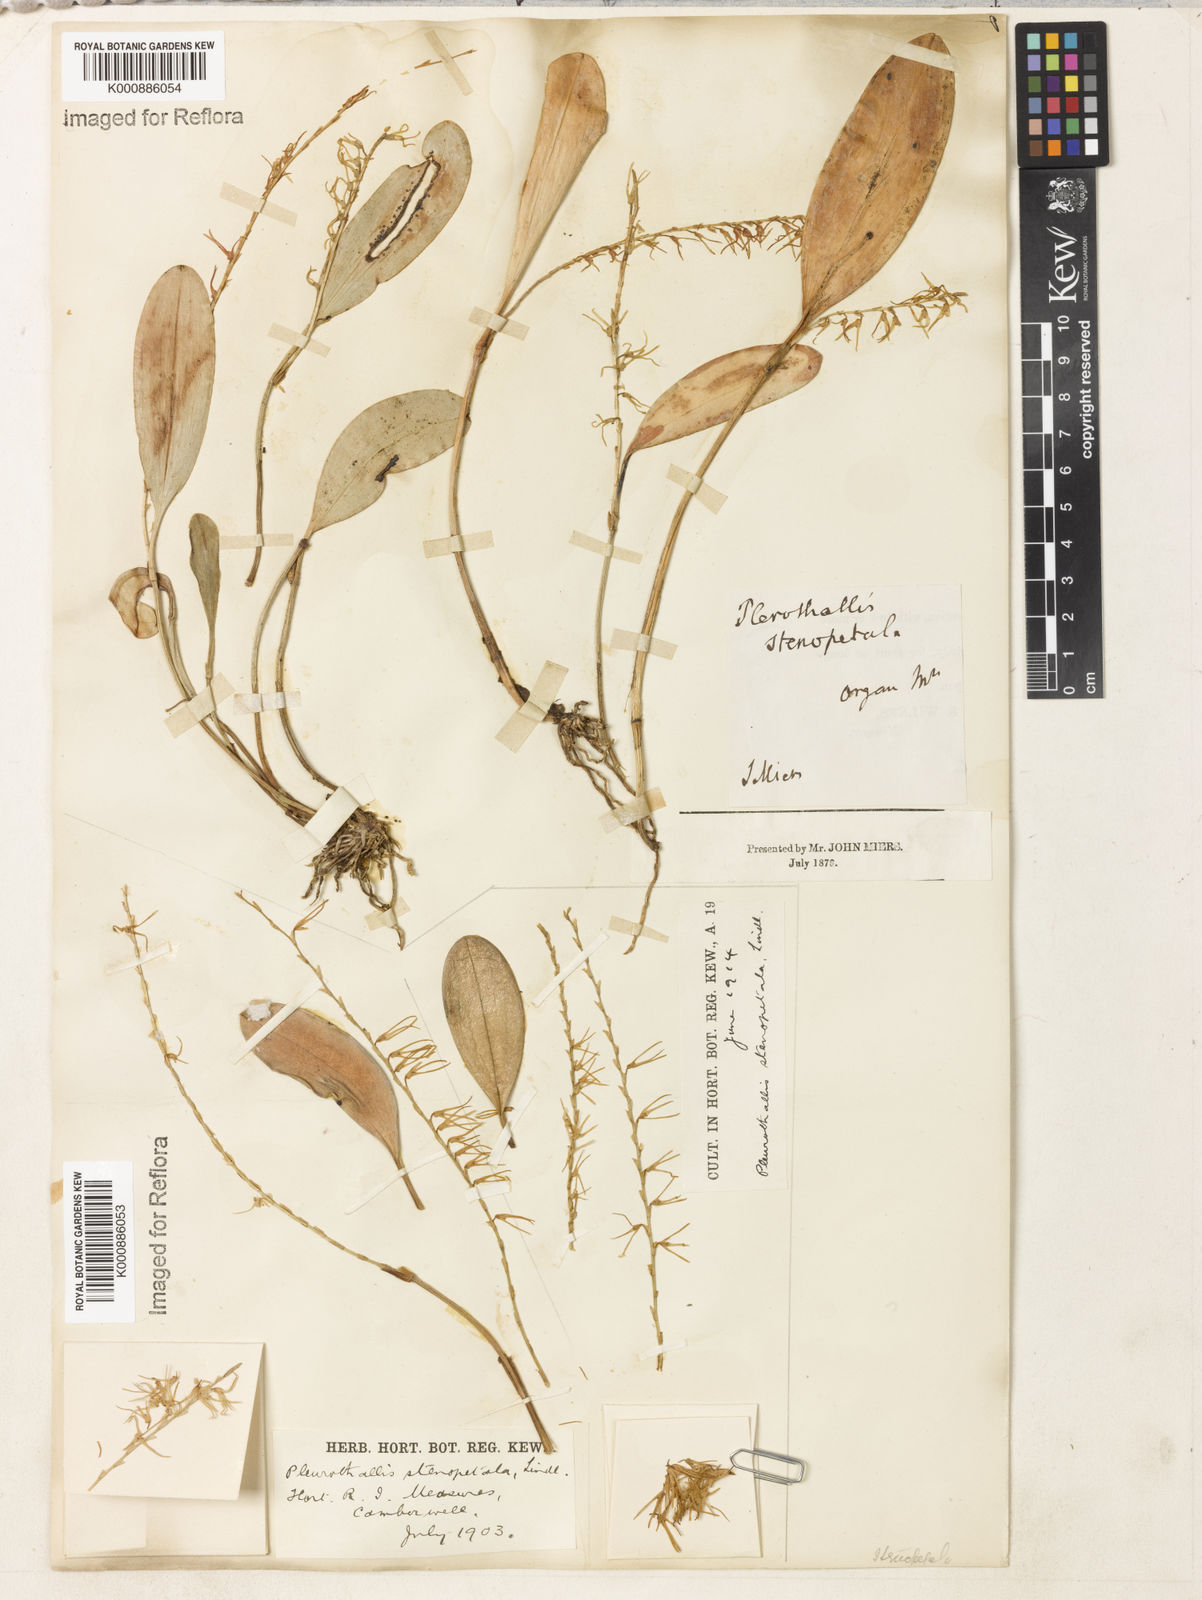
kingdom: Plantae
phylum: Tracheophyta
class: Liliopsida
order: Asparagales
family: Orchidaceae
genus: Stelis
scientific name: Stelis sclerophylla
